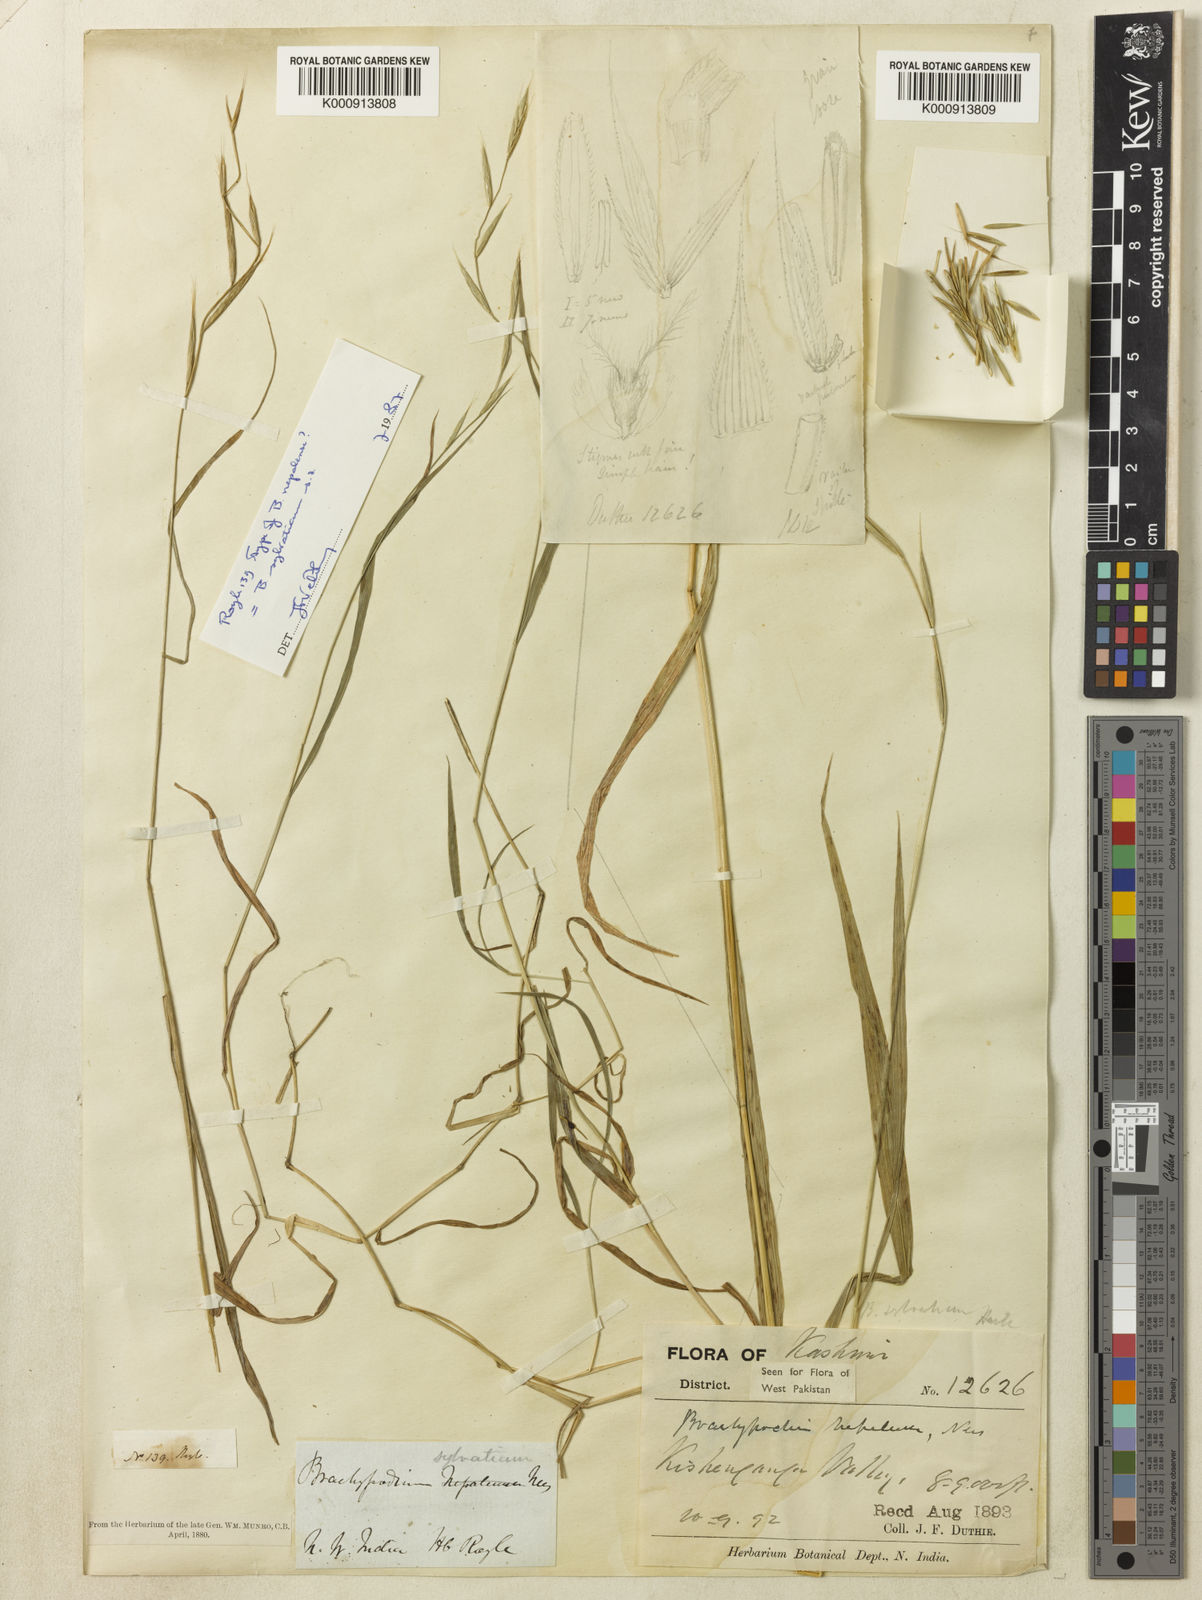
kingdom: Plantae
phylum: Tracheophyta
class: Liliopsida
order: Poales
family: Poaceae
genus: Brachypodium
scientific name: Brachypodium sylvaticum
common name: False-brome
